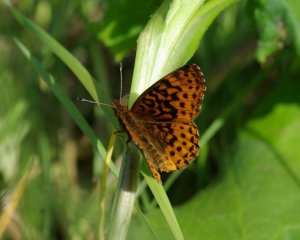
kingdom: Animalia
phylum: Arthropoda
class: Insecta
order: Lepidoptera
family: Nymphalidae
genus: Clossiana
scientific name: Clossiana toddi
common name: Meadow Fritillary
